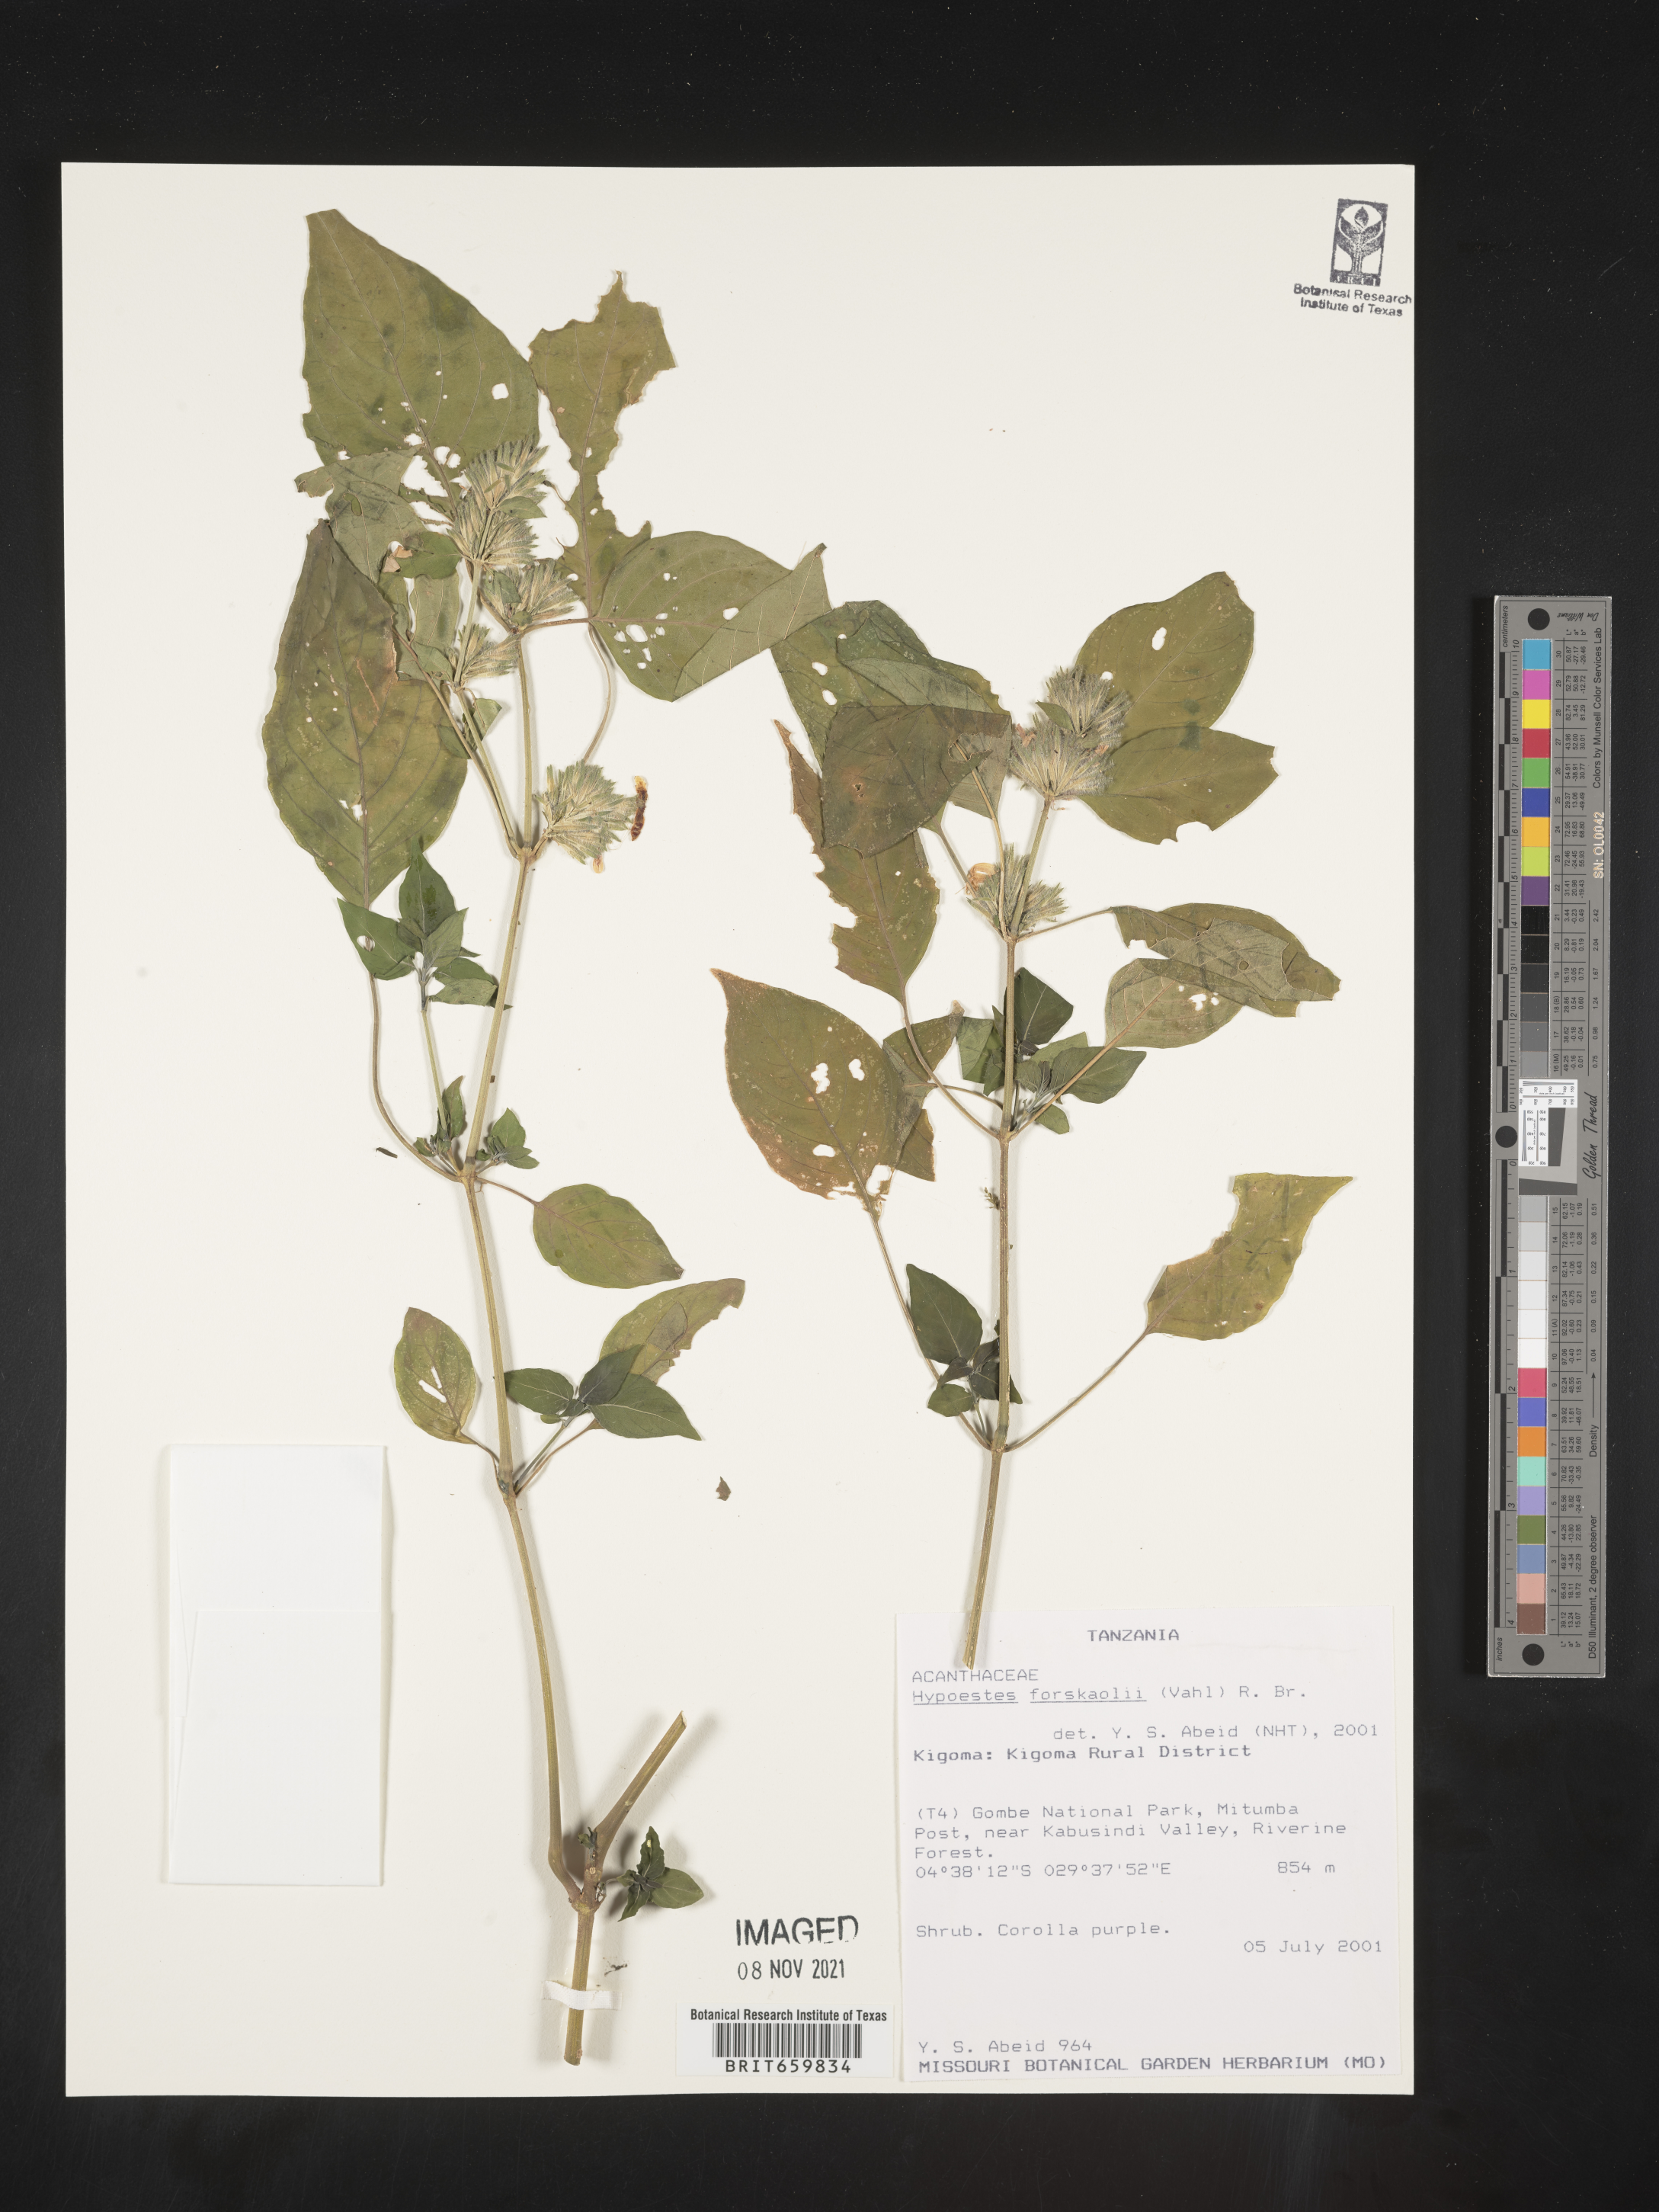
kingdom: Plantae
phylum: Tracheophyta
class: Magnoliopsida
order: Lamiales
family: Acanthaceae
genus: Hypoestes
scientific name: Hypoestes forskaolii
